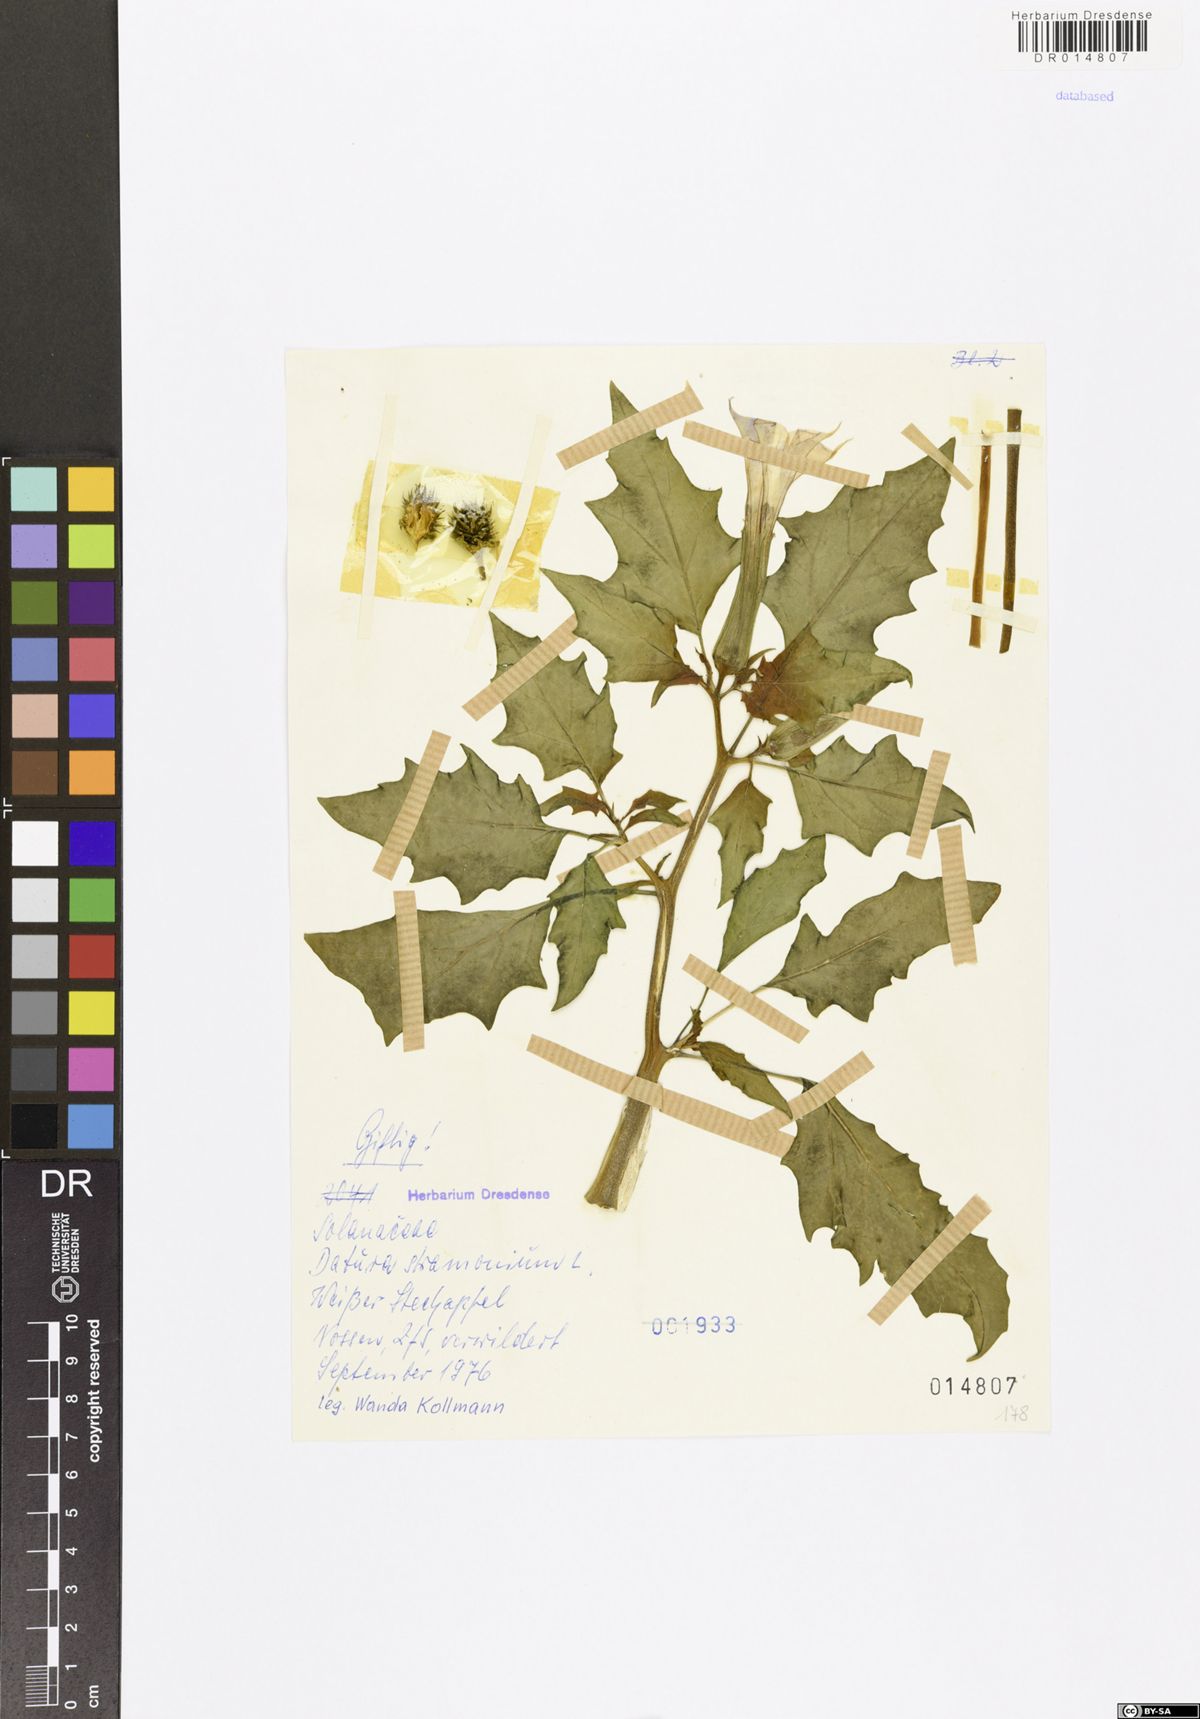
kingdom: Plantae
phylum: Tracheophyta
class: Magnoliopsida
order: Solanales
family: Solanaceae
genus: Datura
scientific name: Datura stramonium
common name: Thorn-apple
